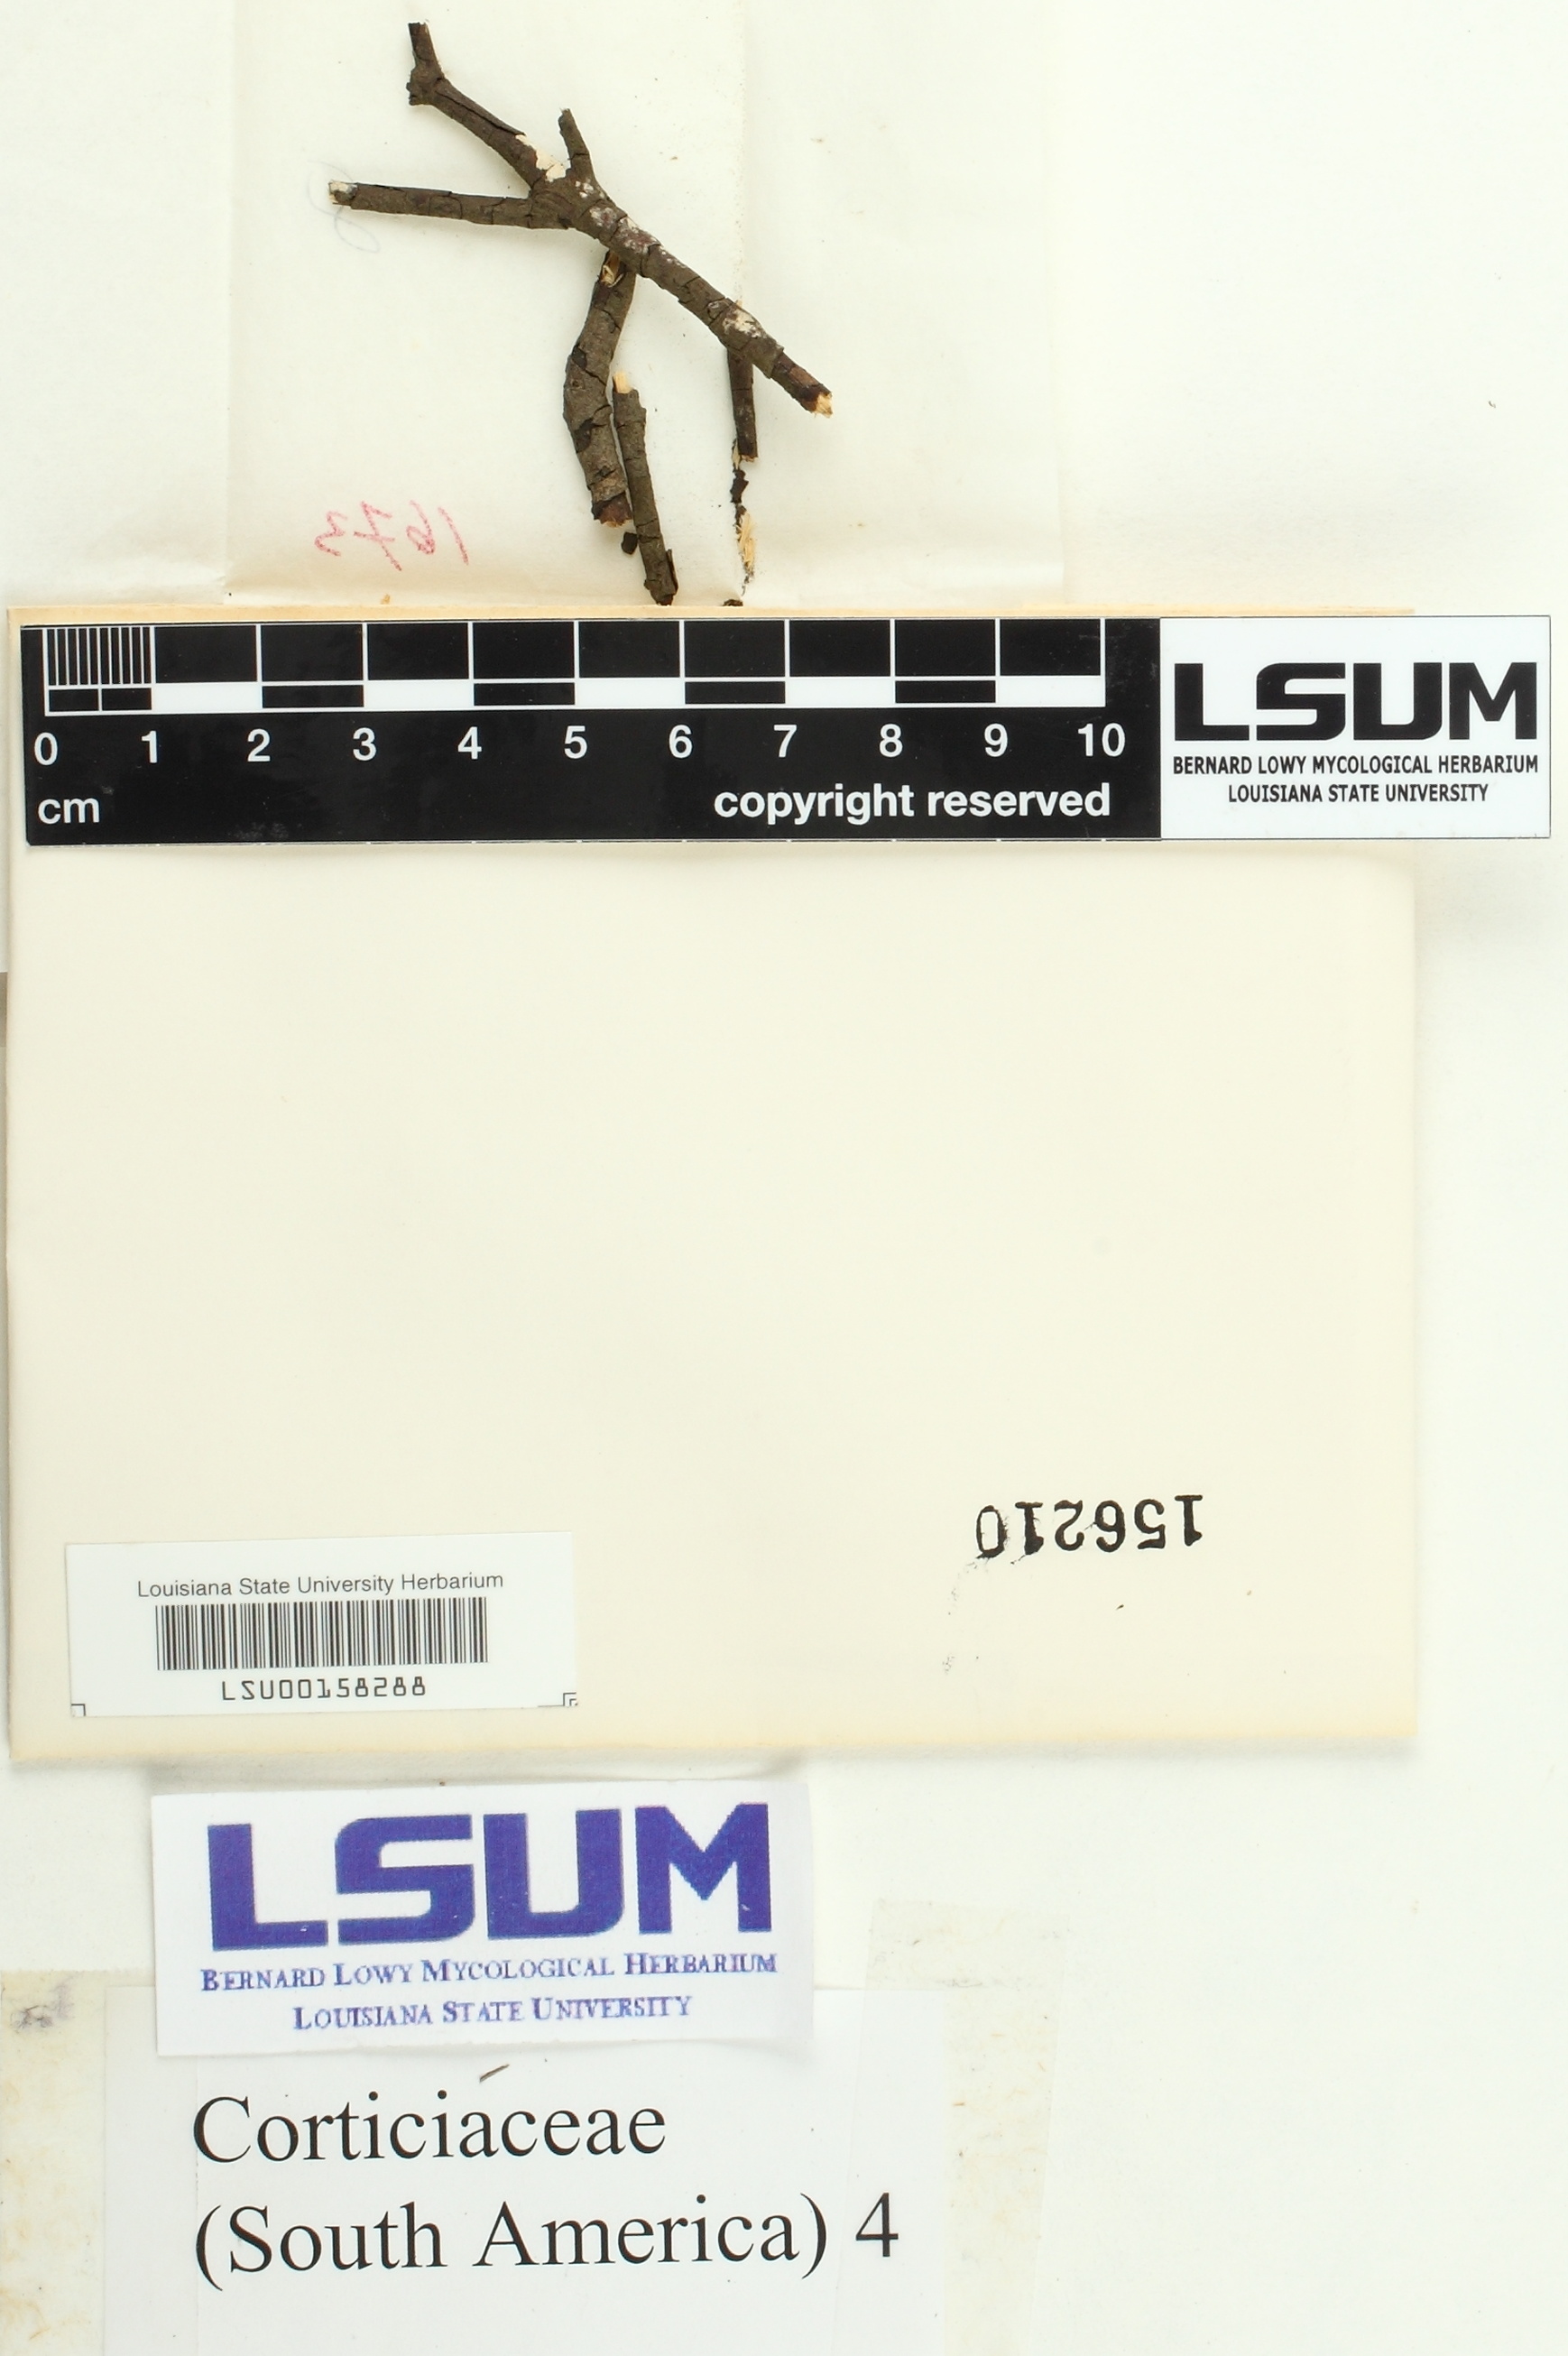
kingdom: Fungi
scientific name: Fungi
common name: Fungi
